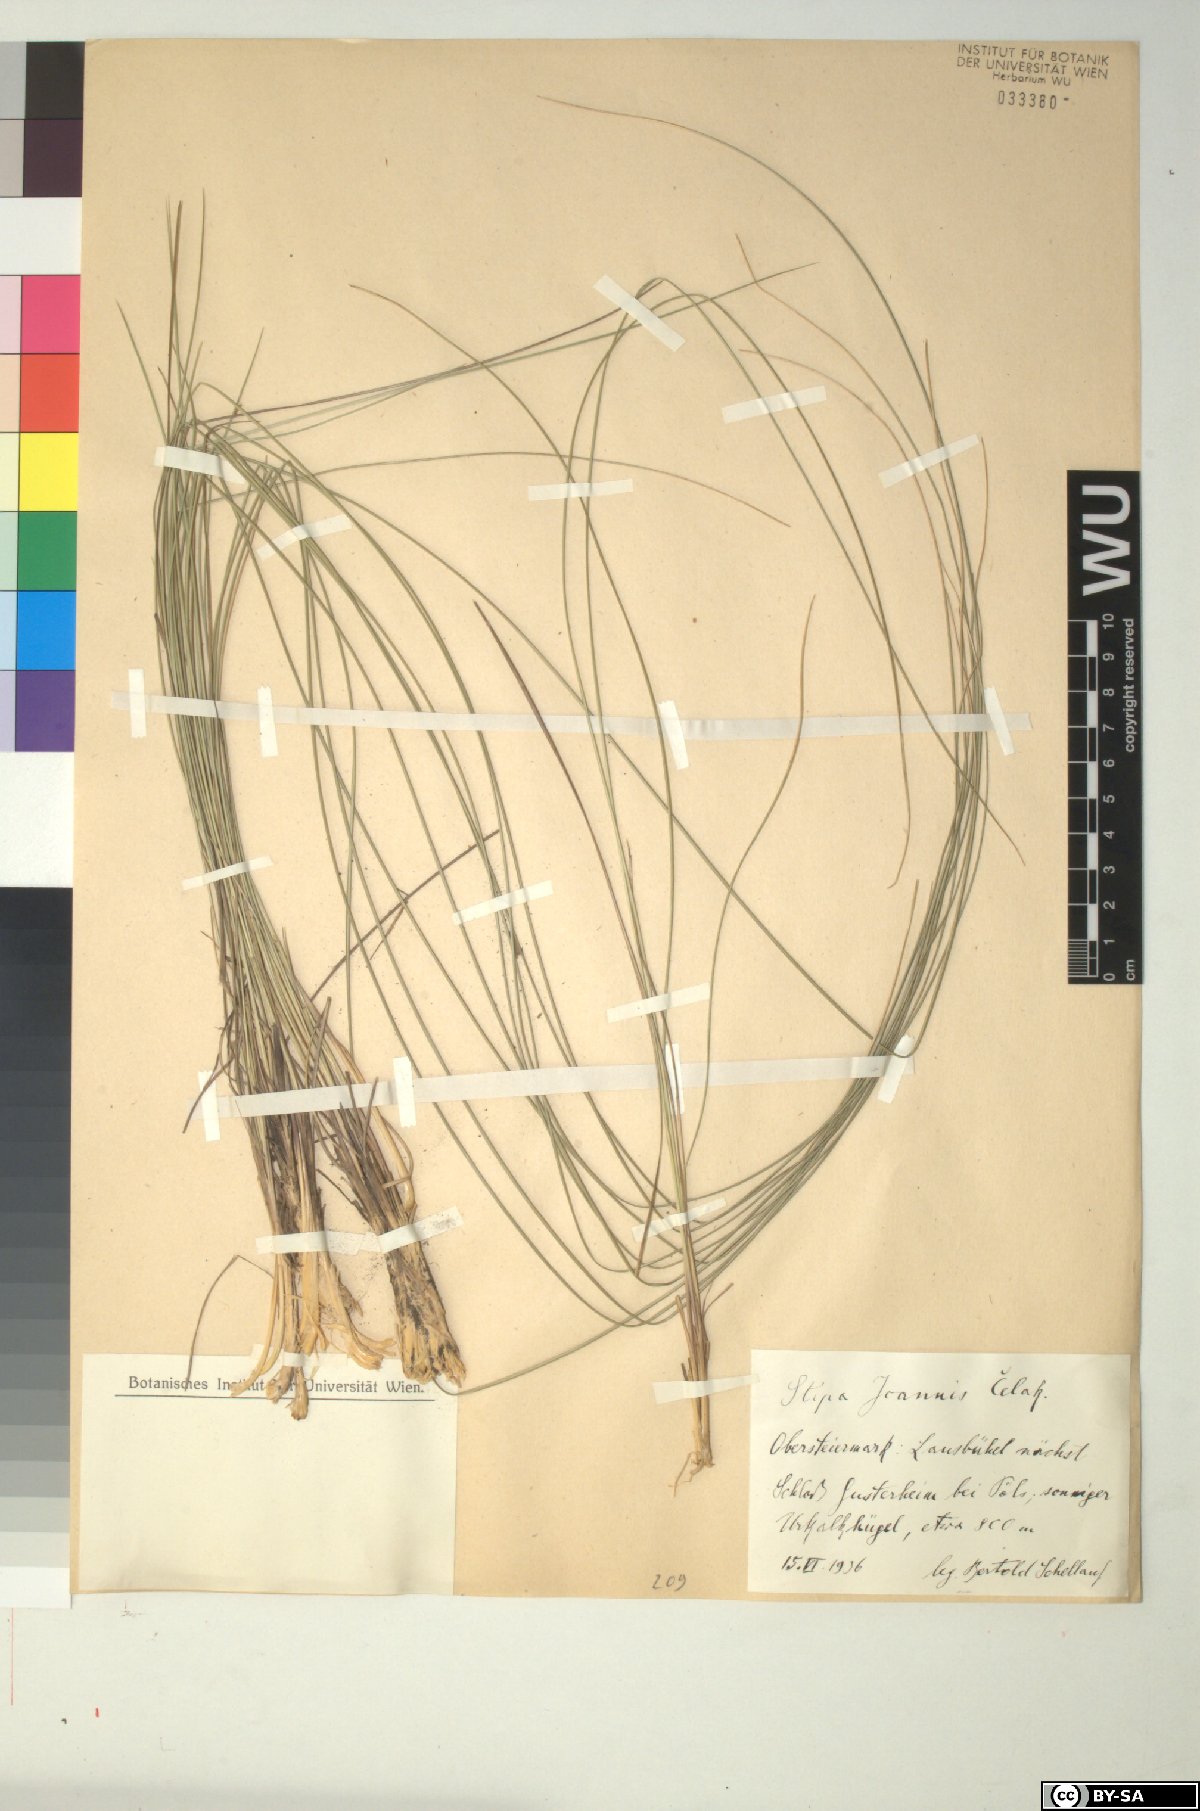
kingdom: Plantae
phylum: Tracheophyta
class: Liliopsida
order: Poales
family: Poaceae
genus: Stipa
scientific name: Stipa pennata
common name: European feather grass
